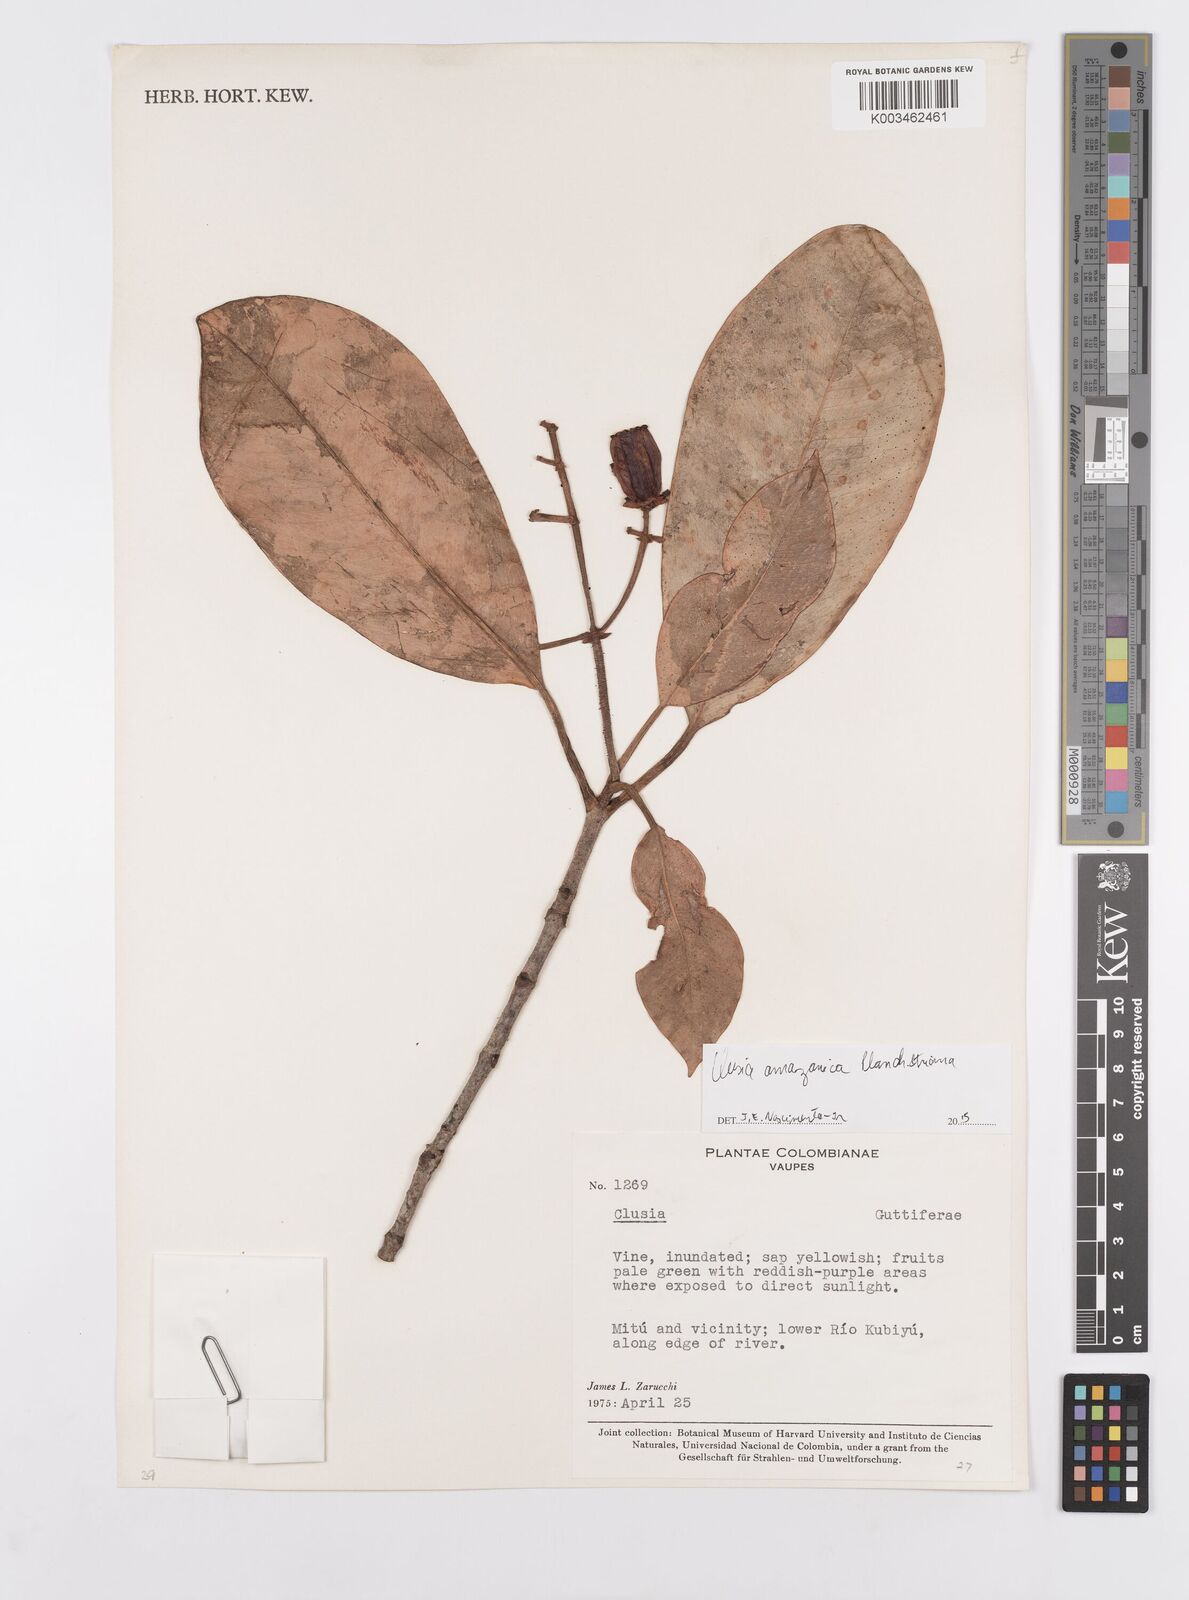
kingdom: Plantae
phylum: Tracheophyta
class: Magnoliopsida
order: Malpighiales
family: Clusiaceae
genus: Clusia
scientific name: Clusia amazonica
